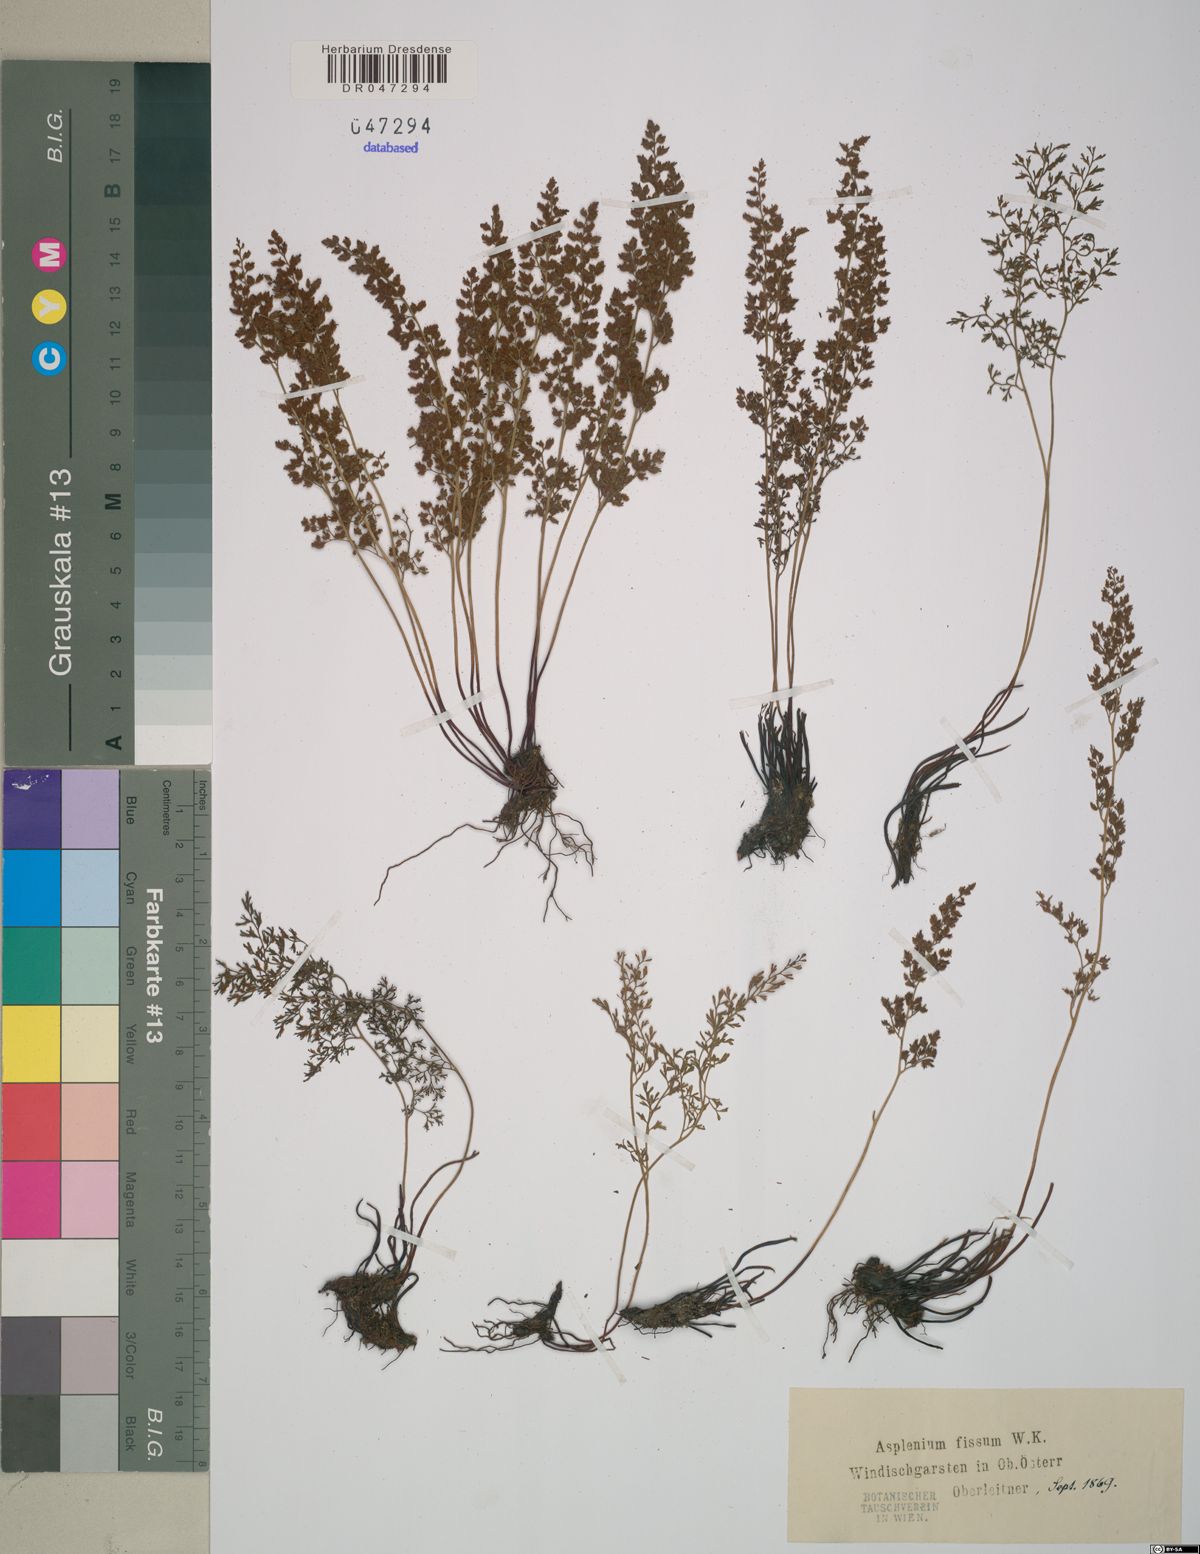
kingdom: Plantae
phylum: Tracheophyta
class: Polypodiopsida
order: Polypodiales
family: Aspleniaceae
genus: Asplenium
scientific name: Asplenium fissum
